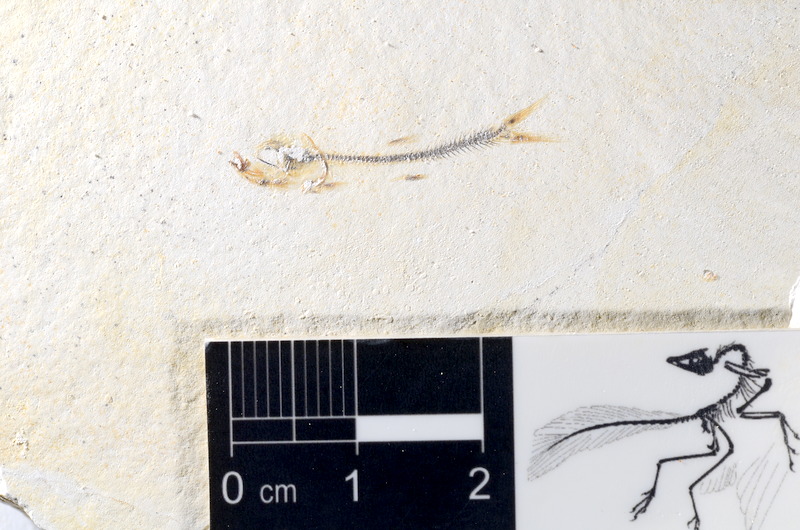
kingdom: Animalia
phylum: Chordata
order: Salmoniformes
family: Orthogonikleithridae
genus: Orthogonikleithrus
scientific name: Orthogonikleithrus hoelli
